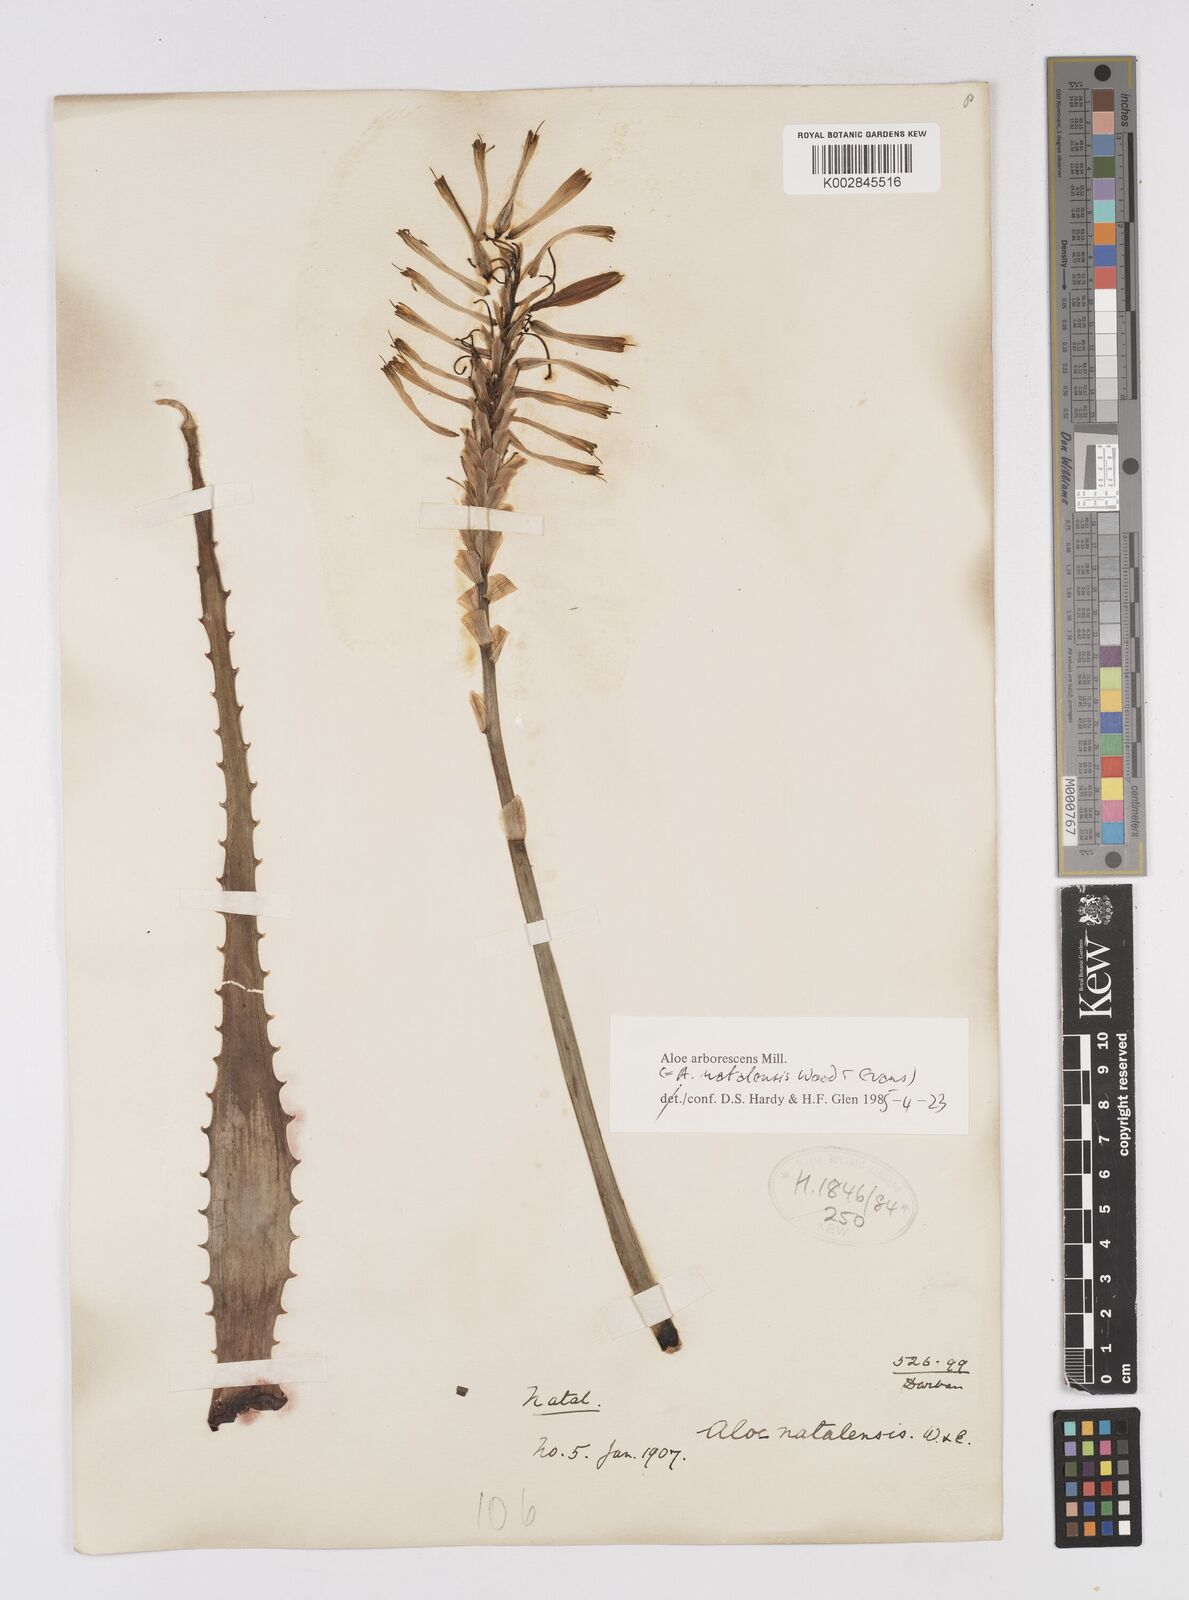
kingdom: Plantae
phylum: Tracheophyta
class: Liliopsida
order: Asparagales
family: Asphodelaceae
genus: Aloe
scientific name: Aloe arborescens
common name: Candelabra aloe
